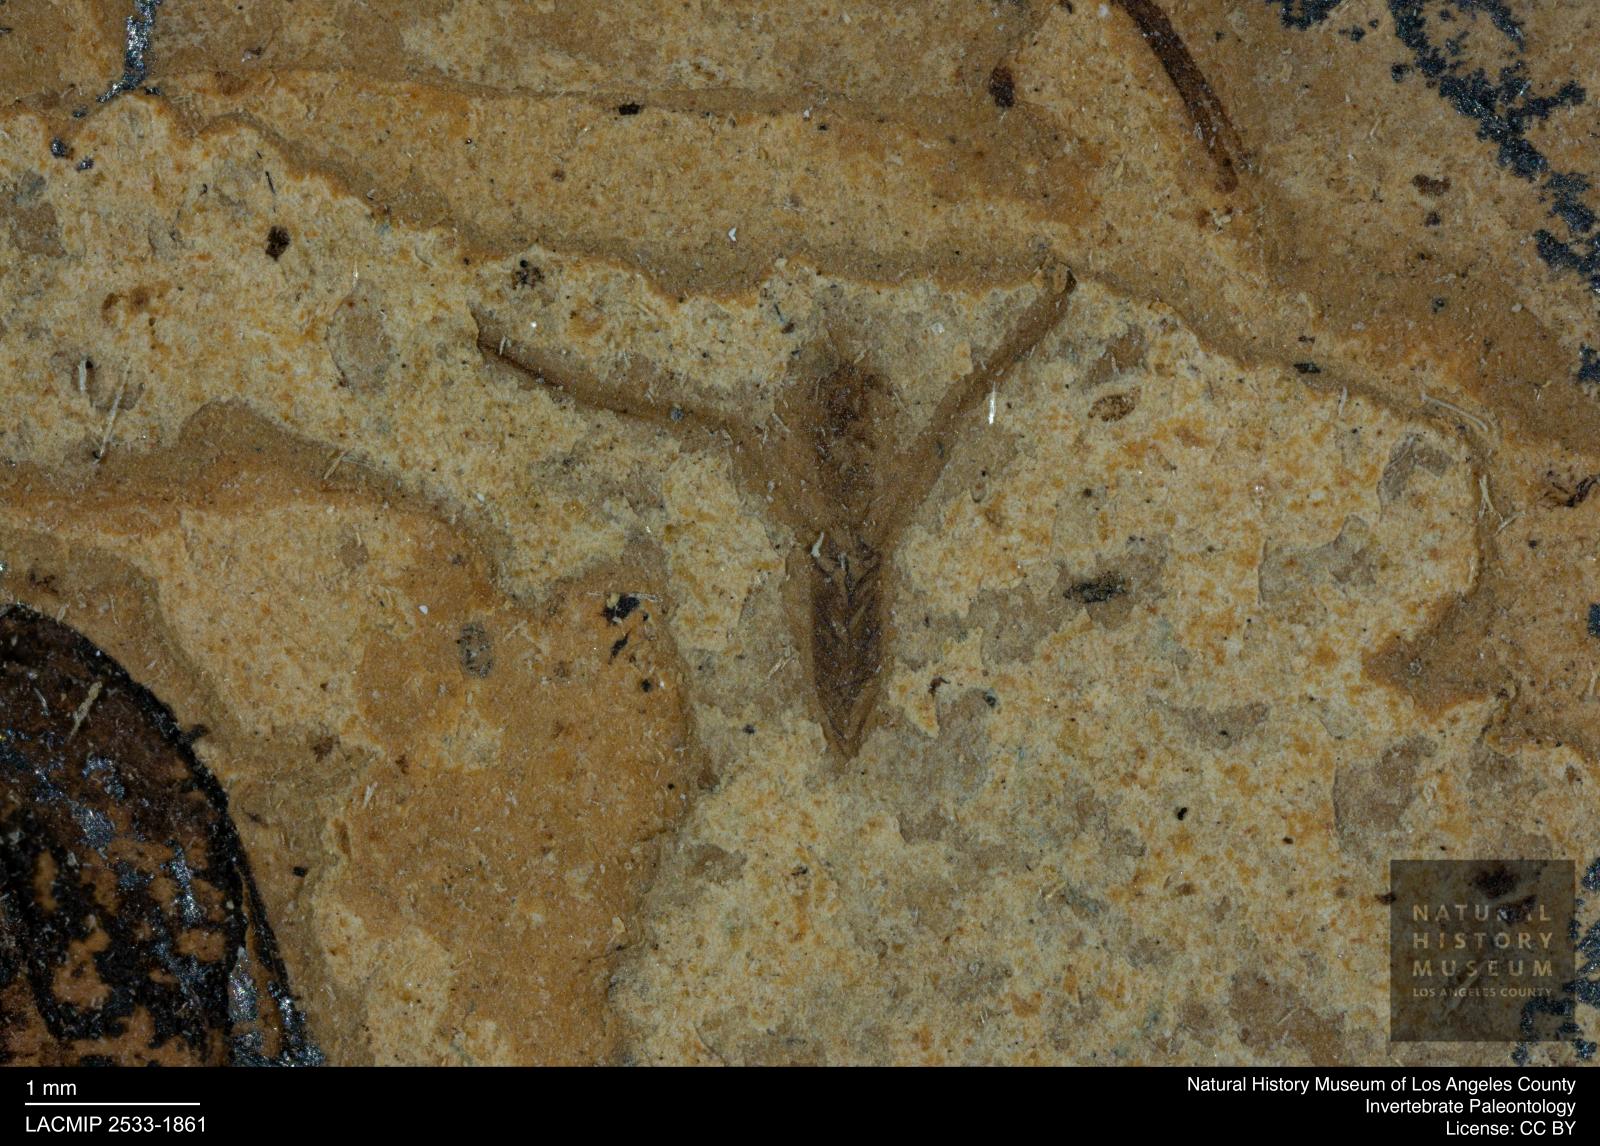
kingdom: Animalia
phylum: Arthropoda
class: Insecta
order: Hemiptera
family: Notonectidae
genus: Notonecta
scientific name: Notonecta
